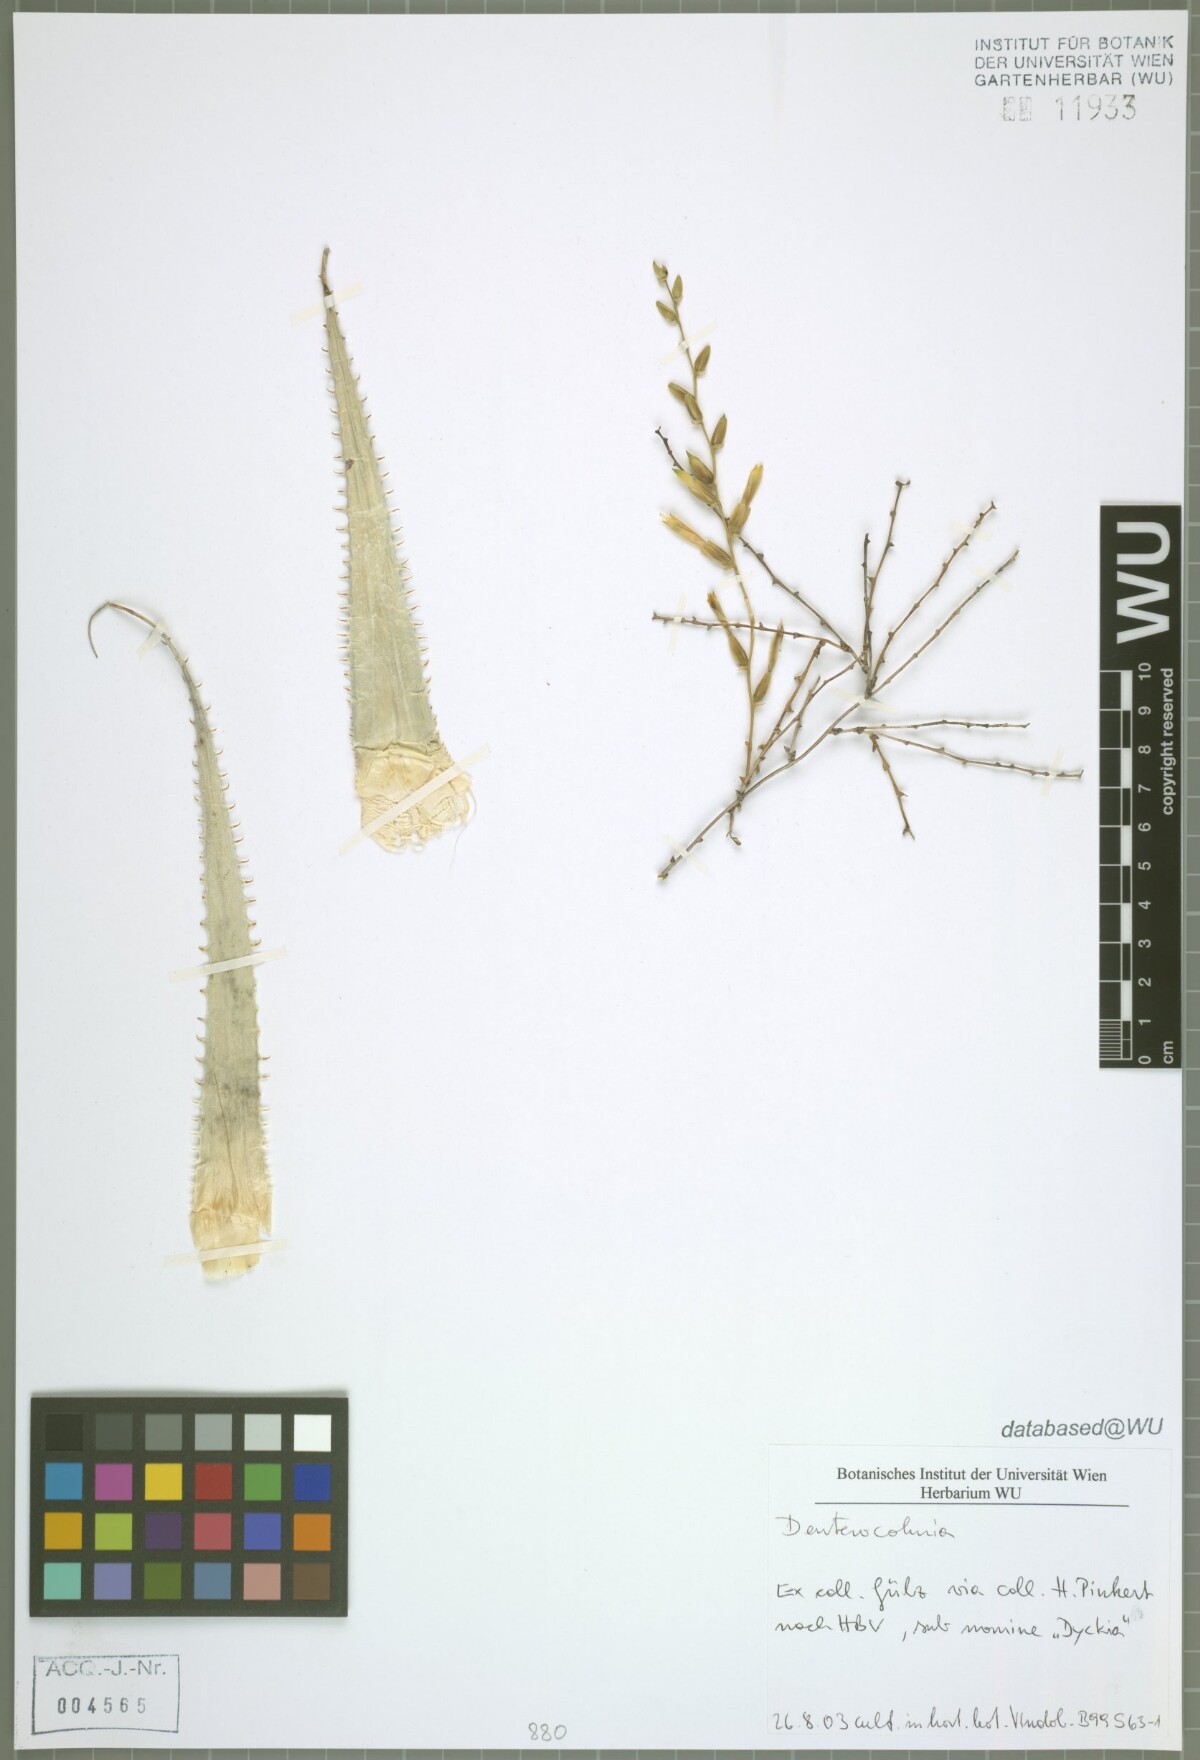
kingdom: Plantae
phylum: Tracheophyta
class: Liliopsida
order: Poales
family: Bromeliaceae
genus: Deuterocohnia
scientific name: Deuterocohnia
